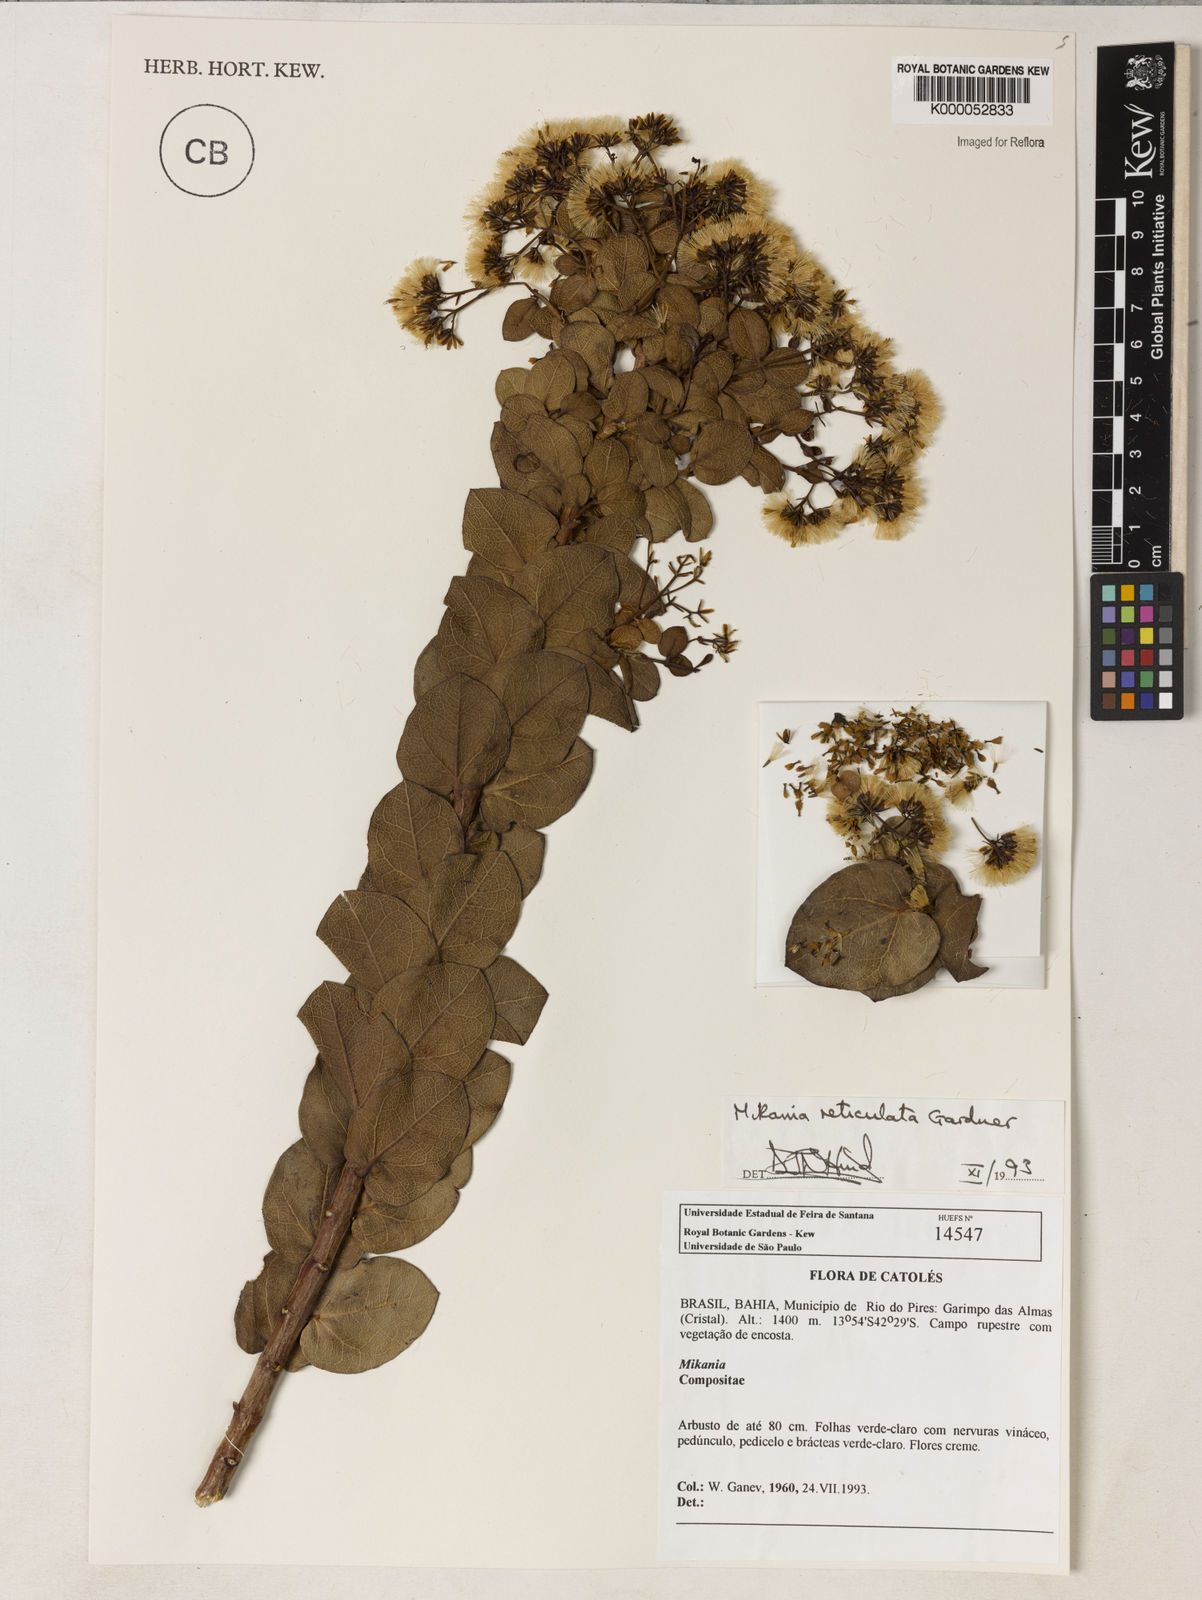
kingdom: Plantae
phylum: Tracheophyta
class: Magnoliopsida
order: Asterales
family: Asteraceae
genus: Mikania
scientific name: Mikania reticulata
